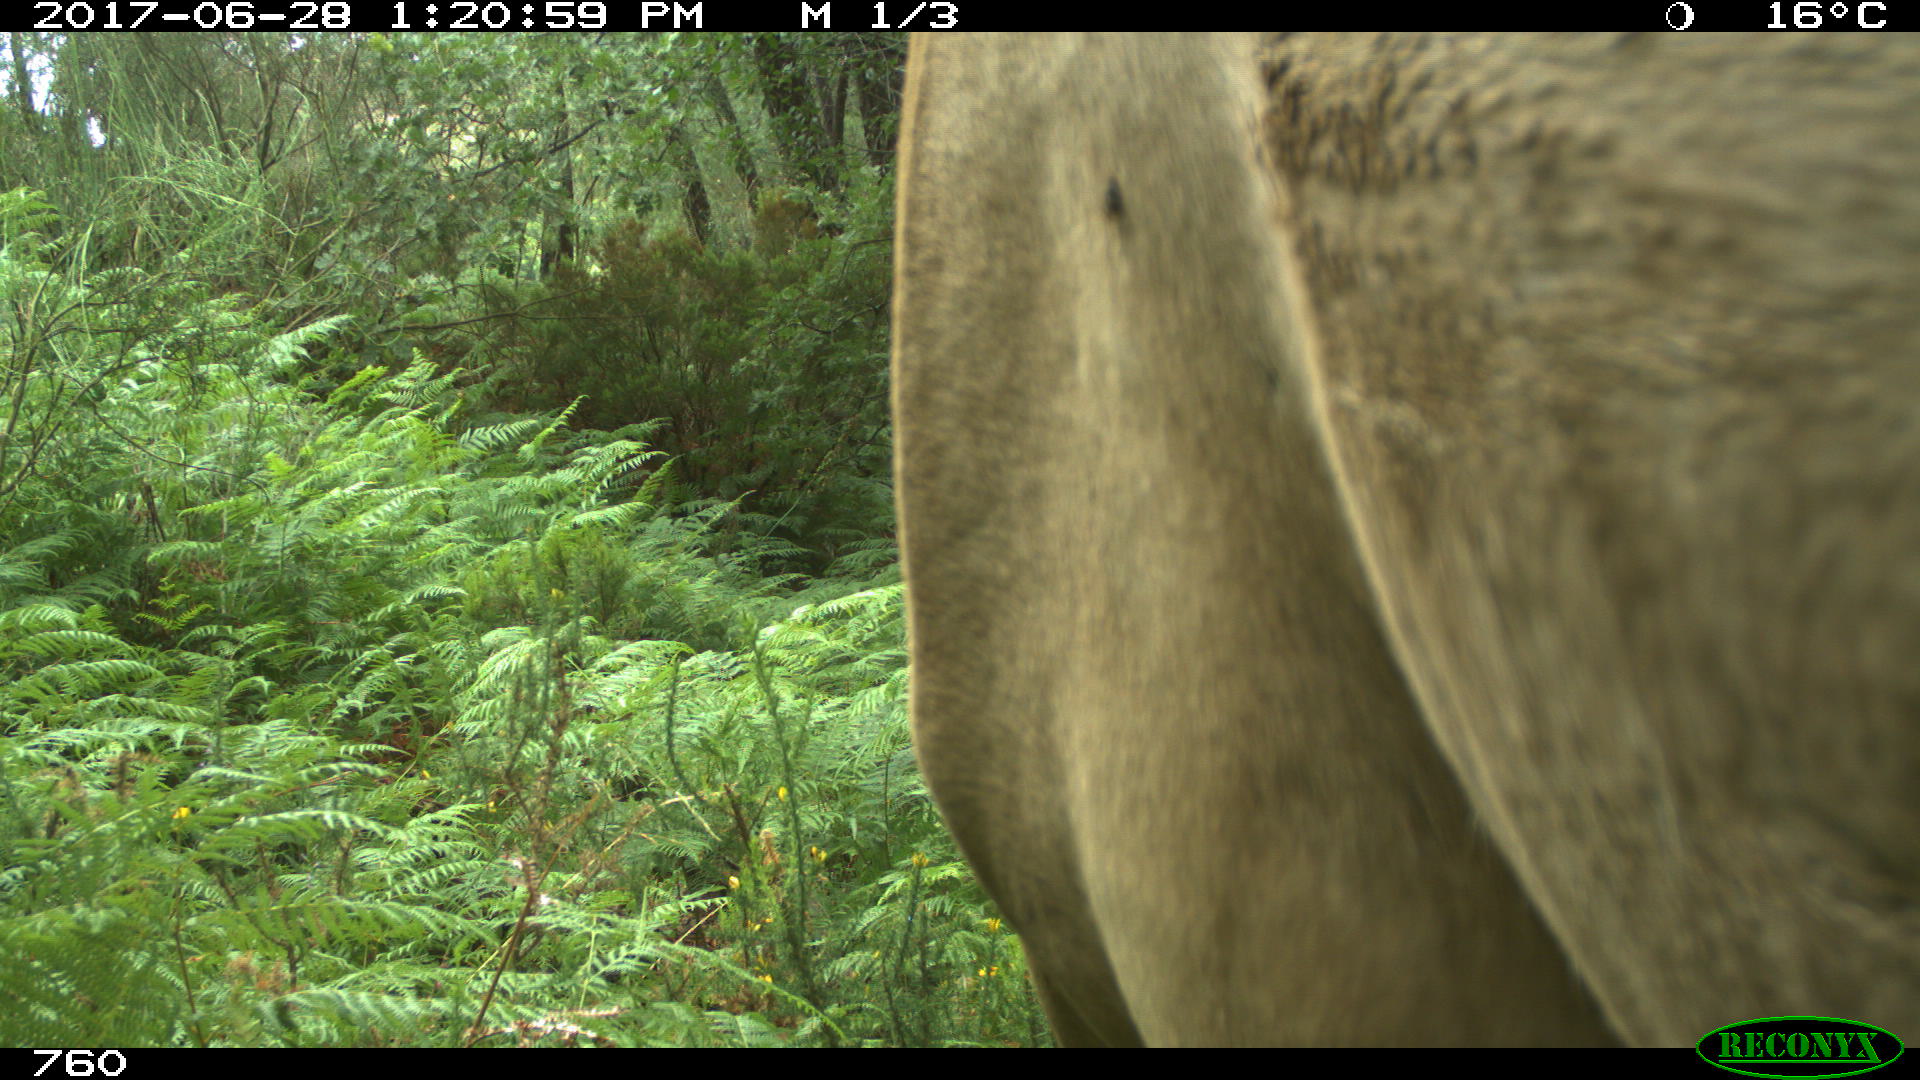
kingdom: Animalia
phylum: Chordata
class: Mammalia
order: Perissodactyla
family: Equidae
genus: Equus
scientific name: Equus caballus
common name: Horse
